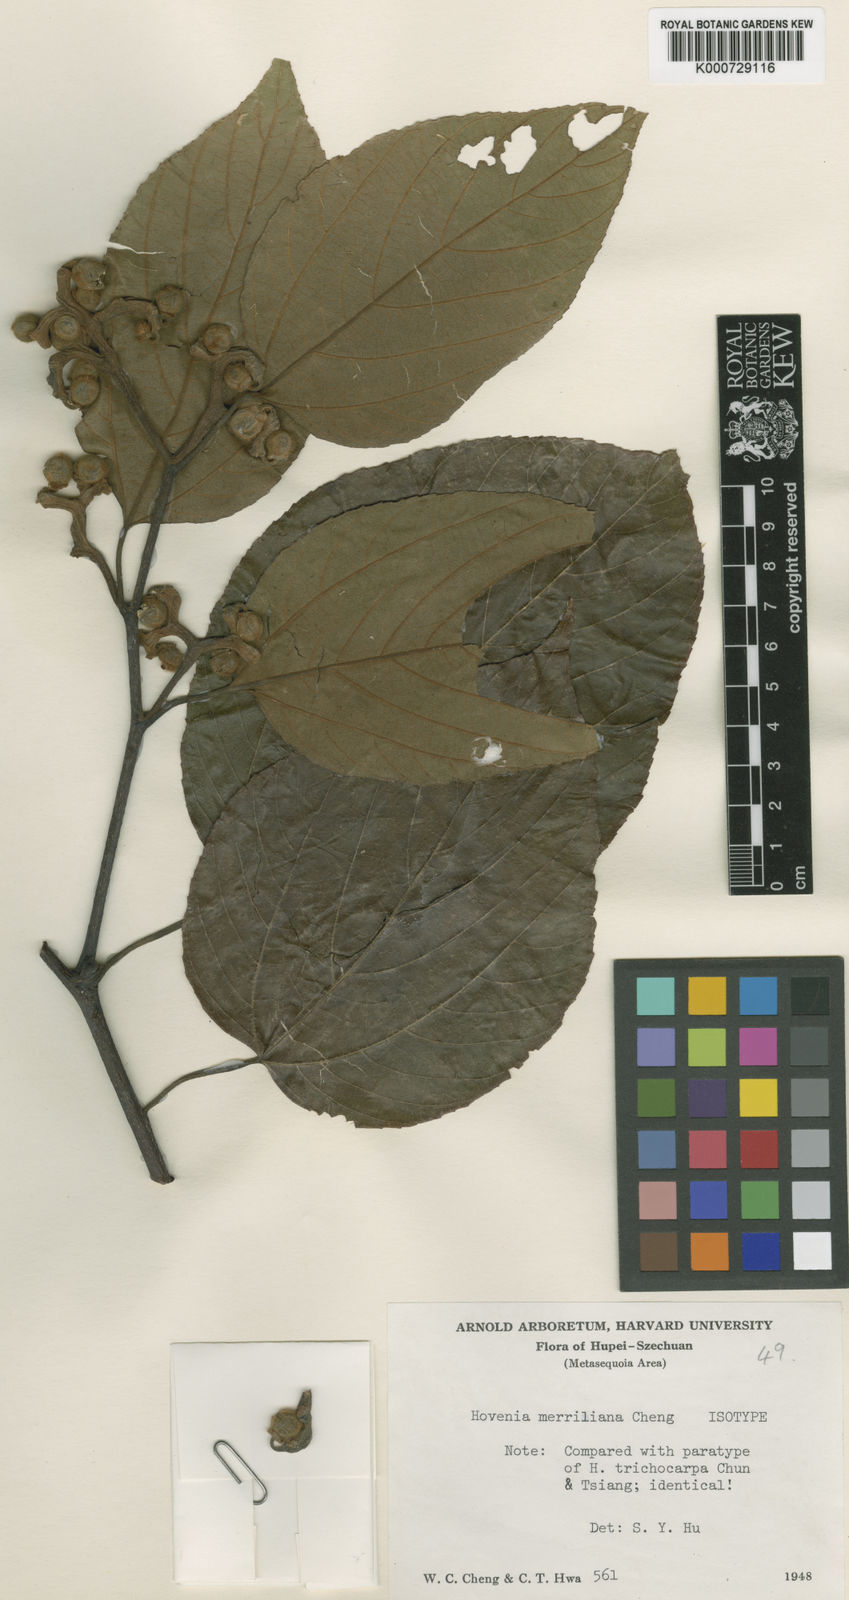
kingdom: Plantae
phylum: Tracheophyta
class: Magnoliopsida
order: Rosales
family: Rhamnaceae
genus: Hovenia
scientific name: Hovenia
